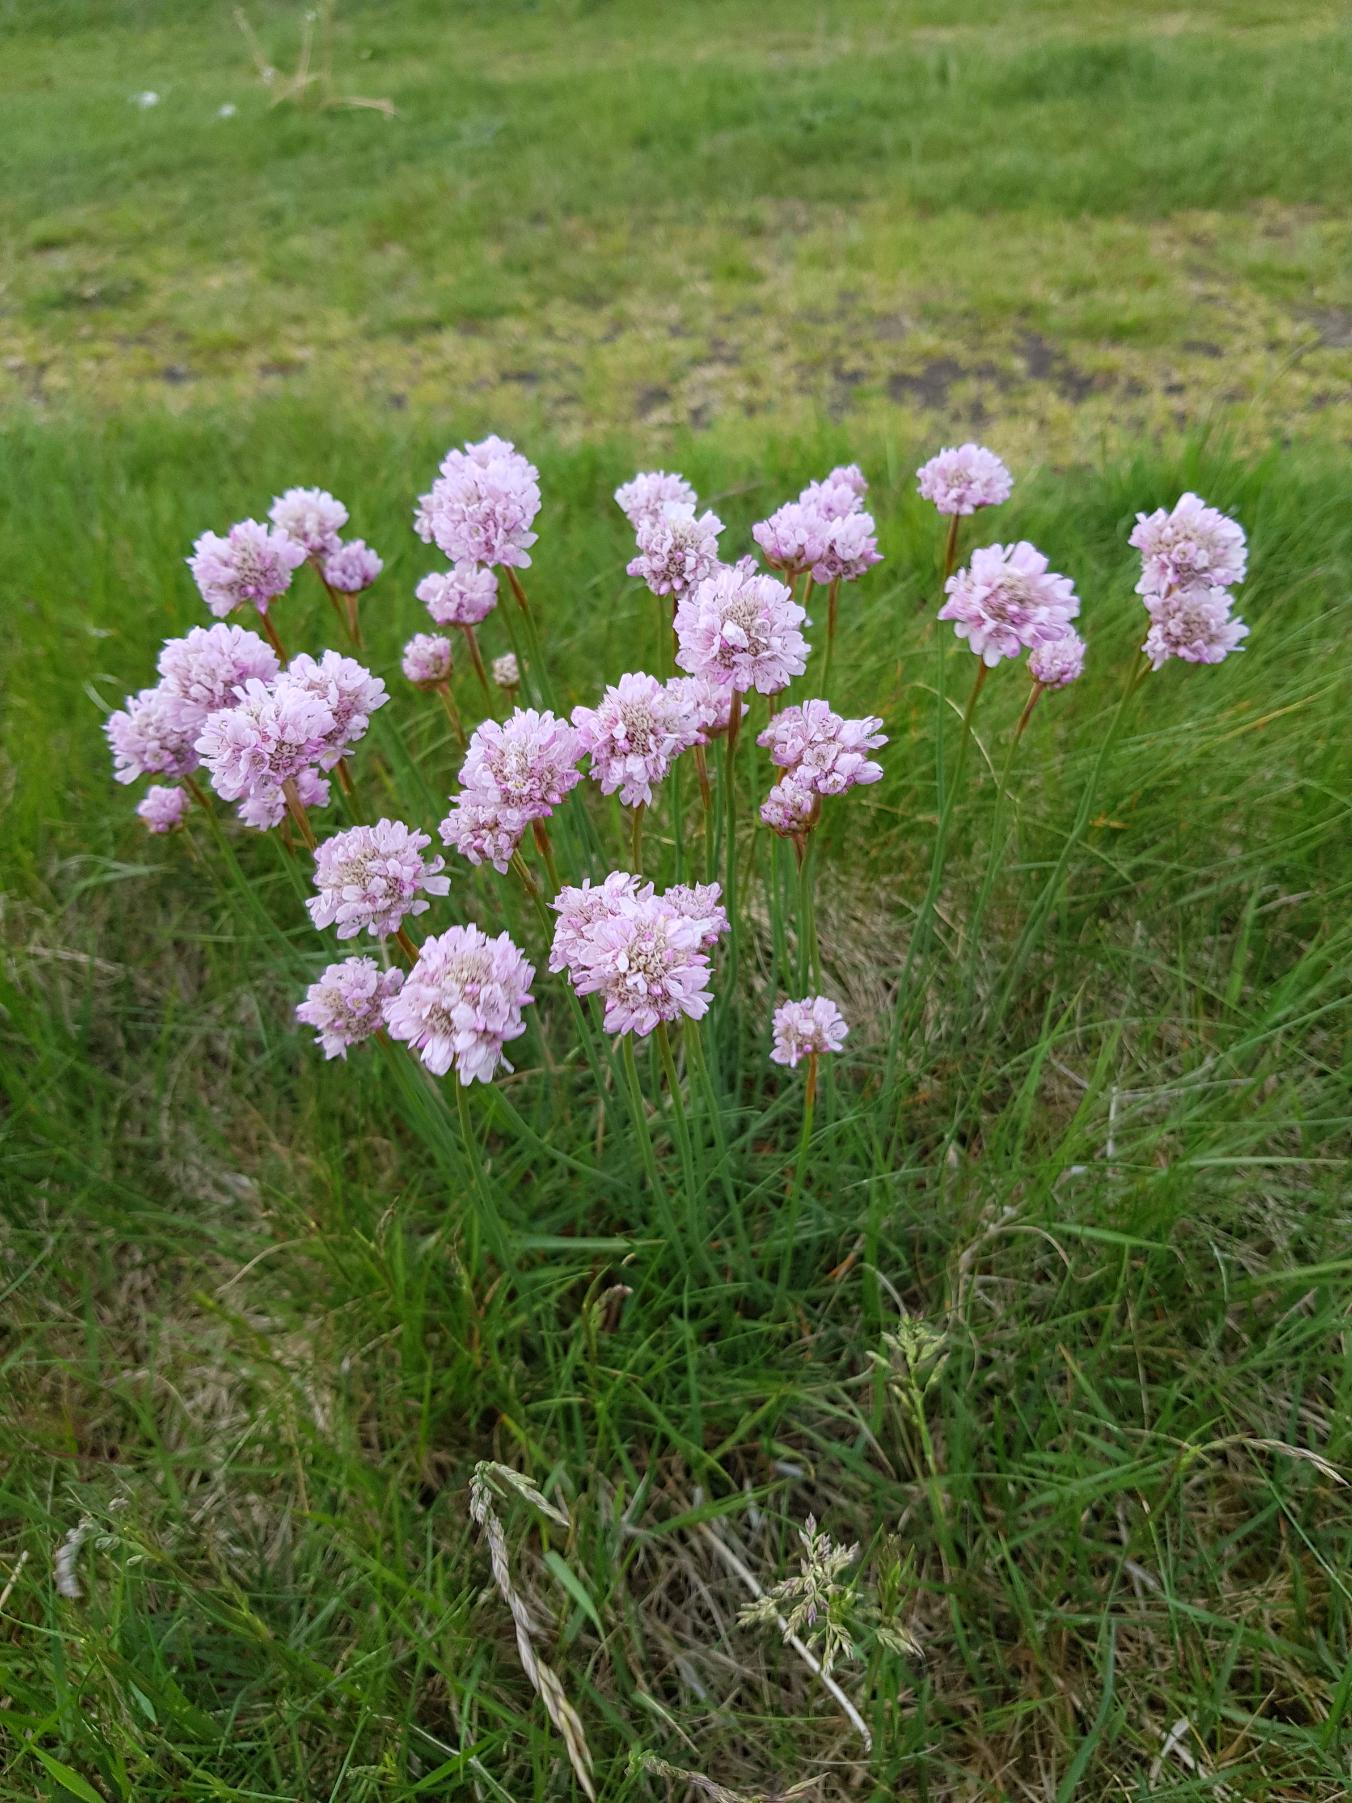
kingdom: Plantae
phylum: Tracheophyta
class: Magnoliopsida
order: Caryophyllales
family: Plumbaginaceae
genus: Armeria
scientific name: Armeria maritima
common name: Engelskgræs
